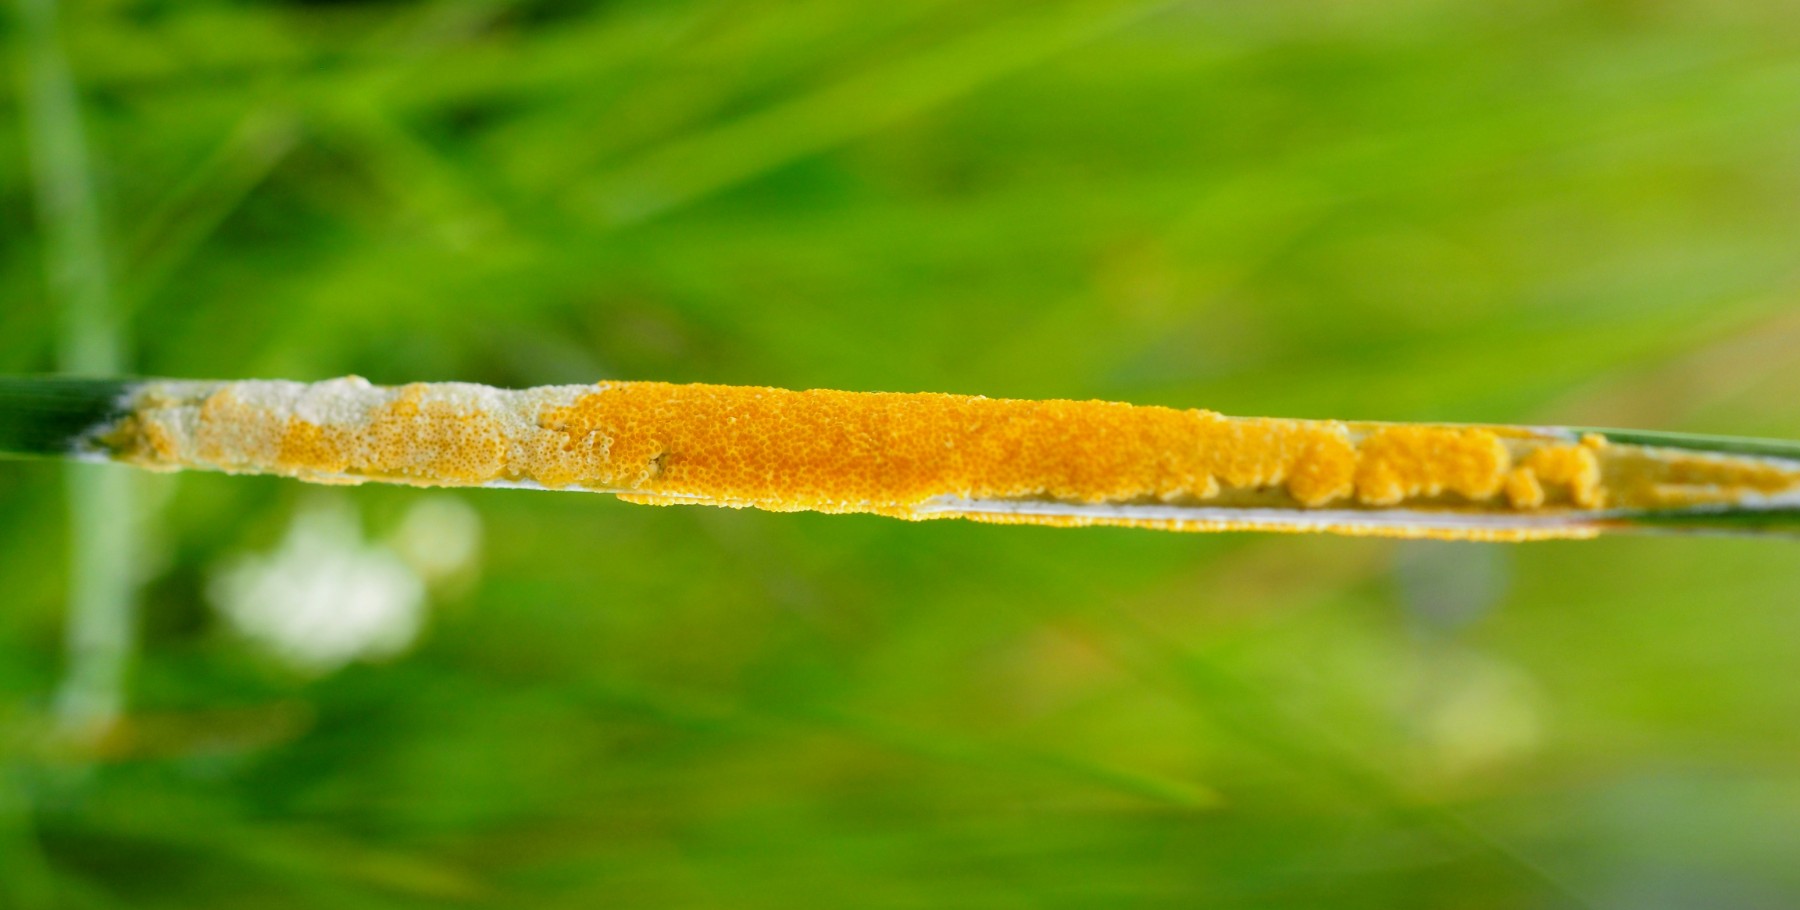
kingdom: Fungi
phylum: Ascomycota
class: Sordariomycetes
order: Hypocreales
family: Clavicipitaceae
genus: Epichloe
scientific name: Epichloe typhina
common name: almindelig kernerør
